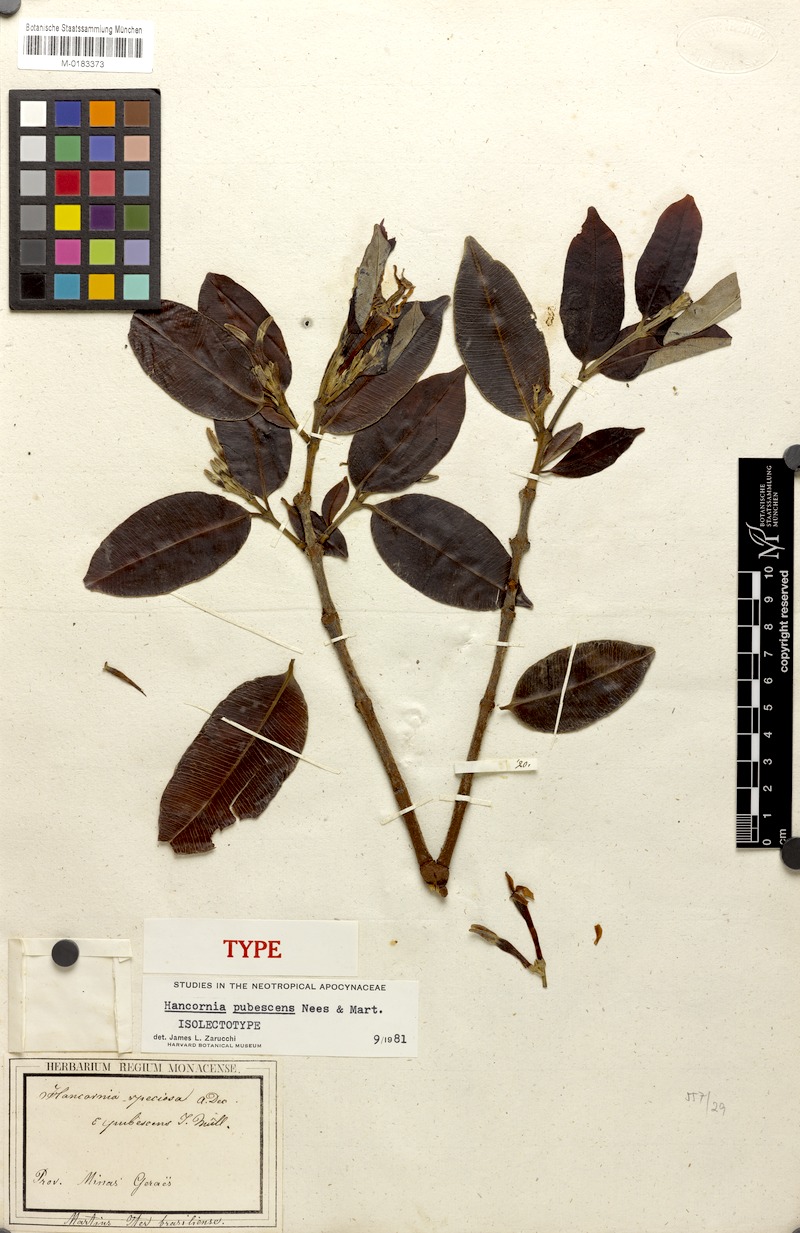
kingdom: Plantae
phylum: Tracheophyta
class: Magnoliopsida
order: Gentianales
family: Apocynaceae
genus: Hancornia
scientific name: Hancornia speciosa
